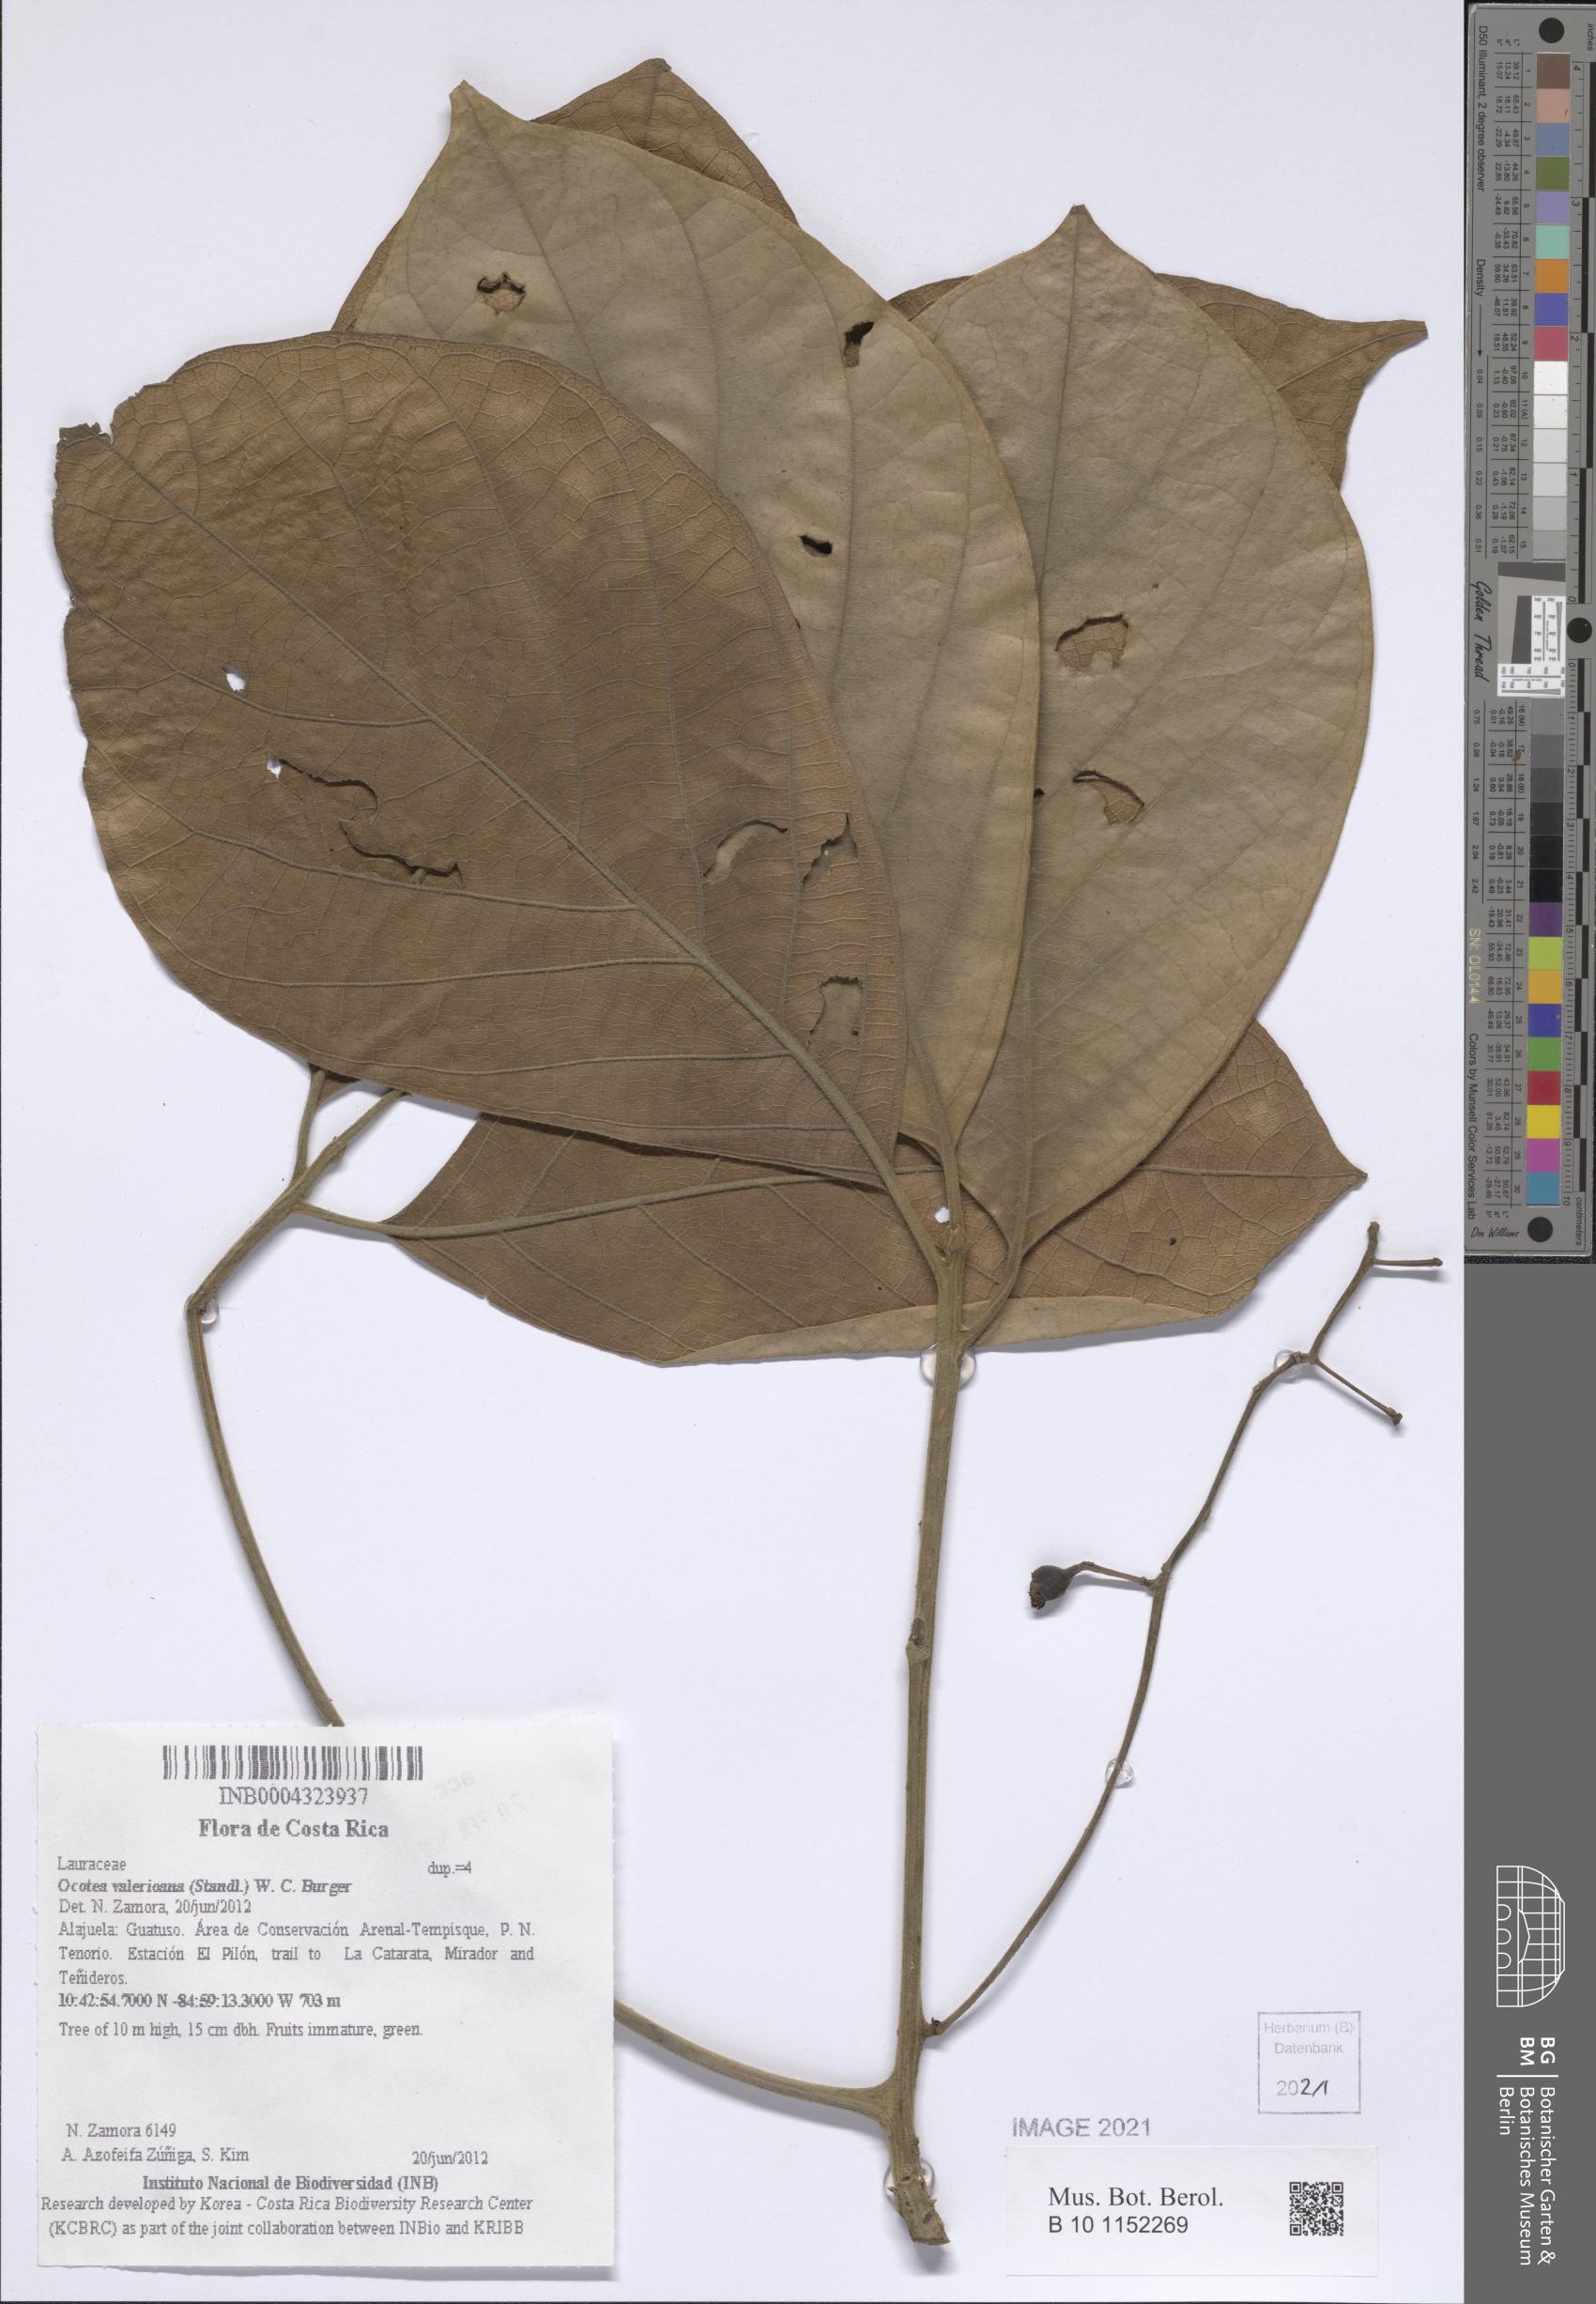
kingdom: Plantae
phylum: Tracheophyta
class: Magnoliopsida
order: Laurales
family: Lauraceae
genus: Ocotea
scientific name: Ocotea valerioana
